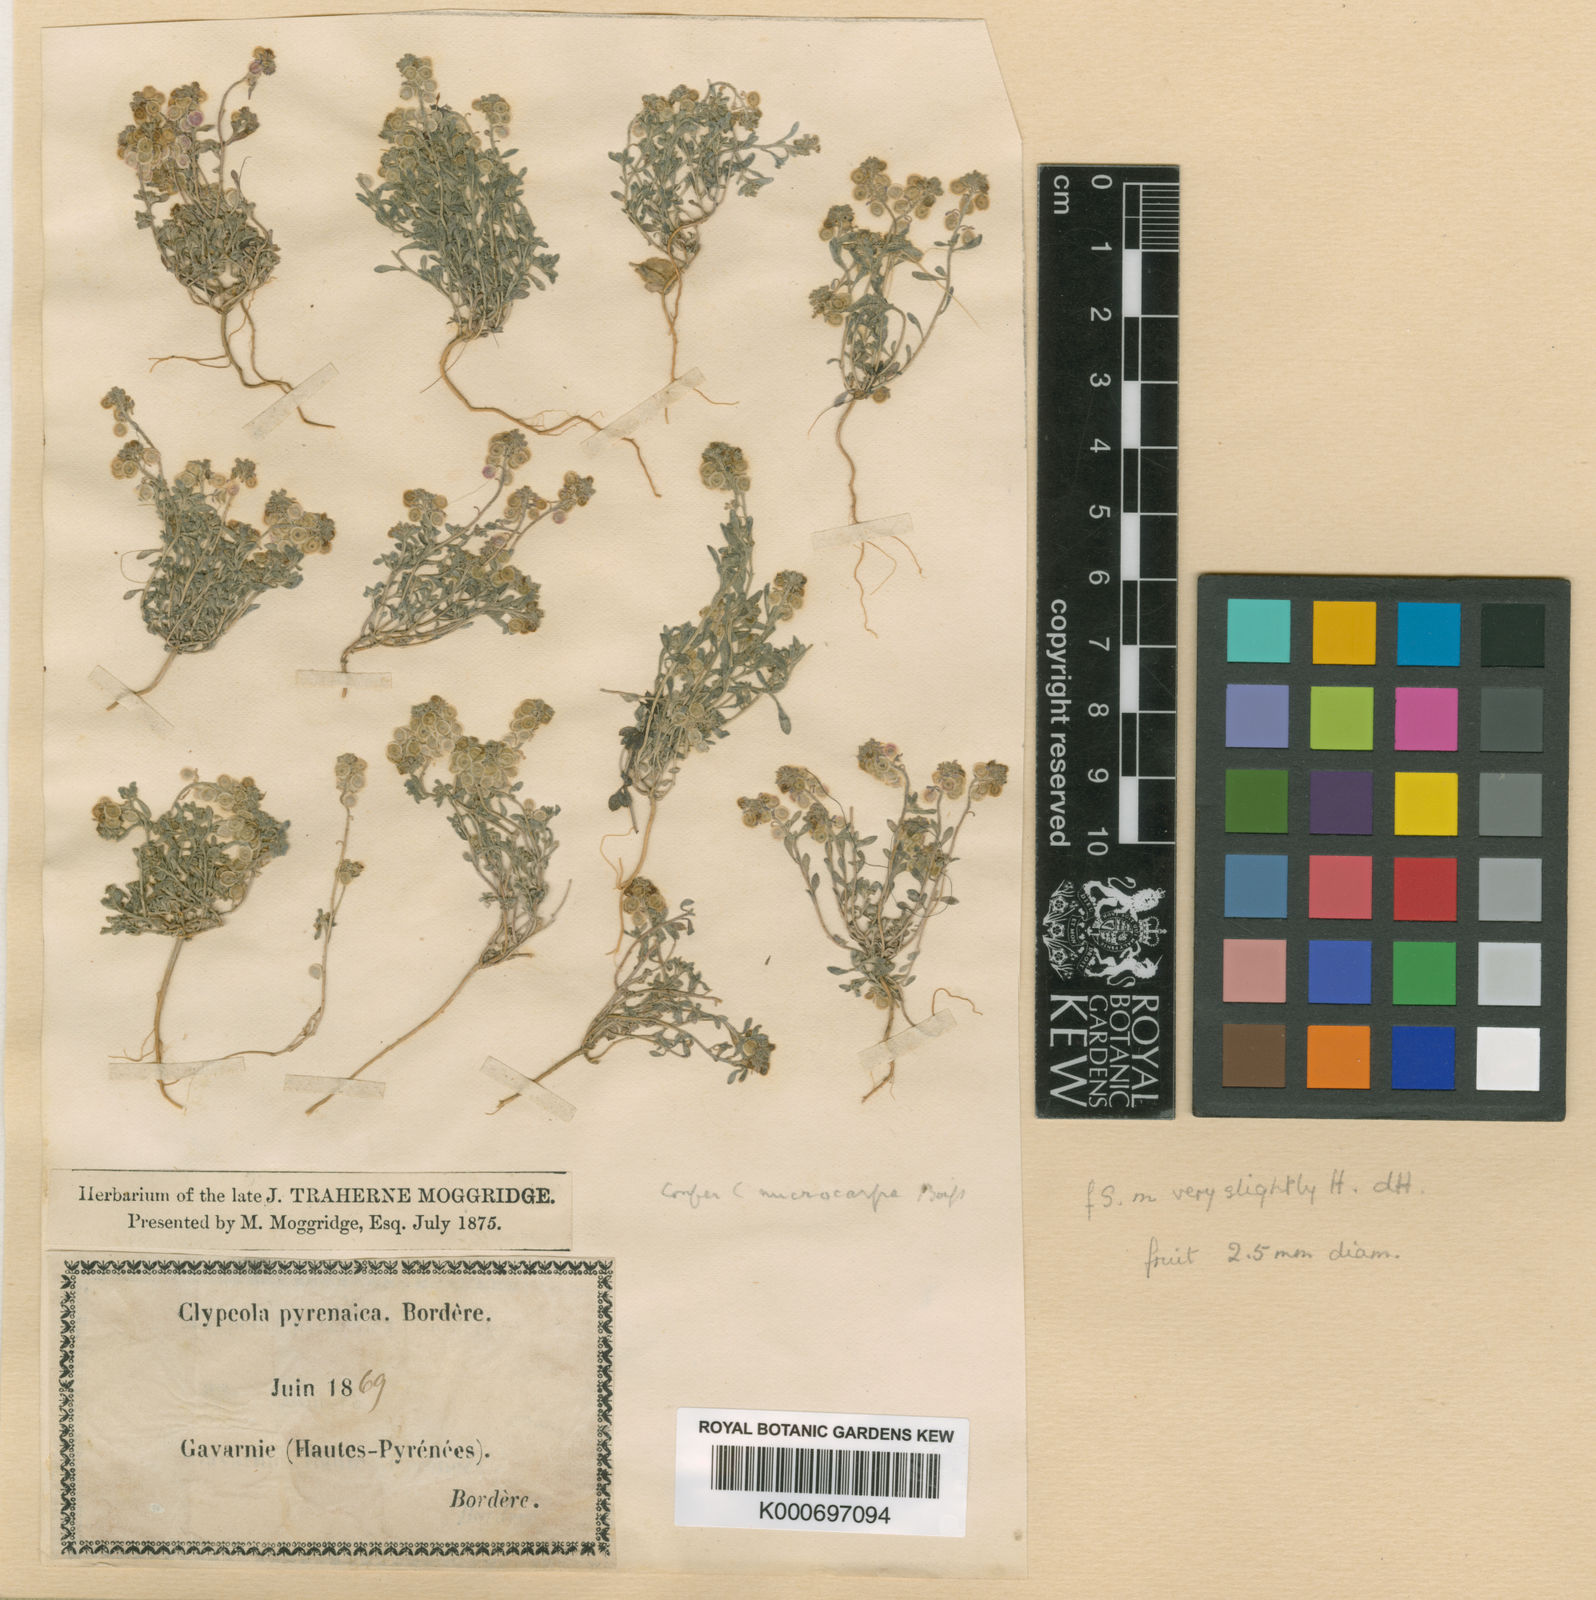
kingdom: Plantae
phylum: Tracheophyta
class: Magnoliopsida
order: Brassicales
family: Brassicaceae
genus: Clypeola
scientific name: Clypeola jonthlaspi
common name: Disk cress
